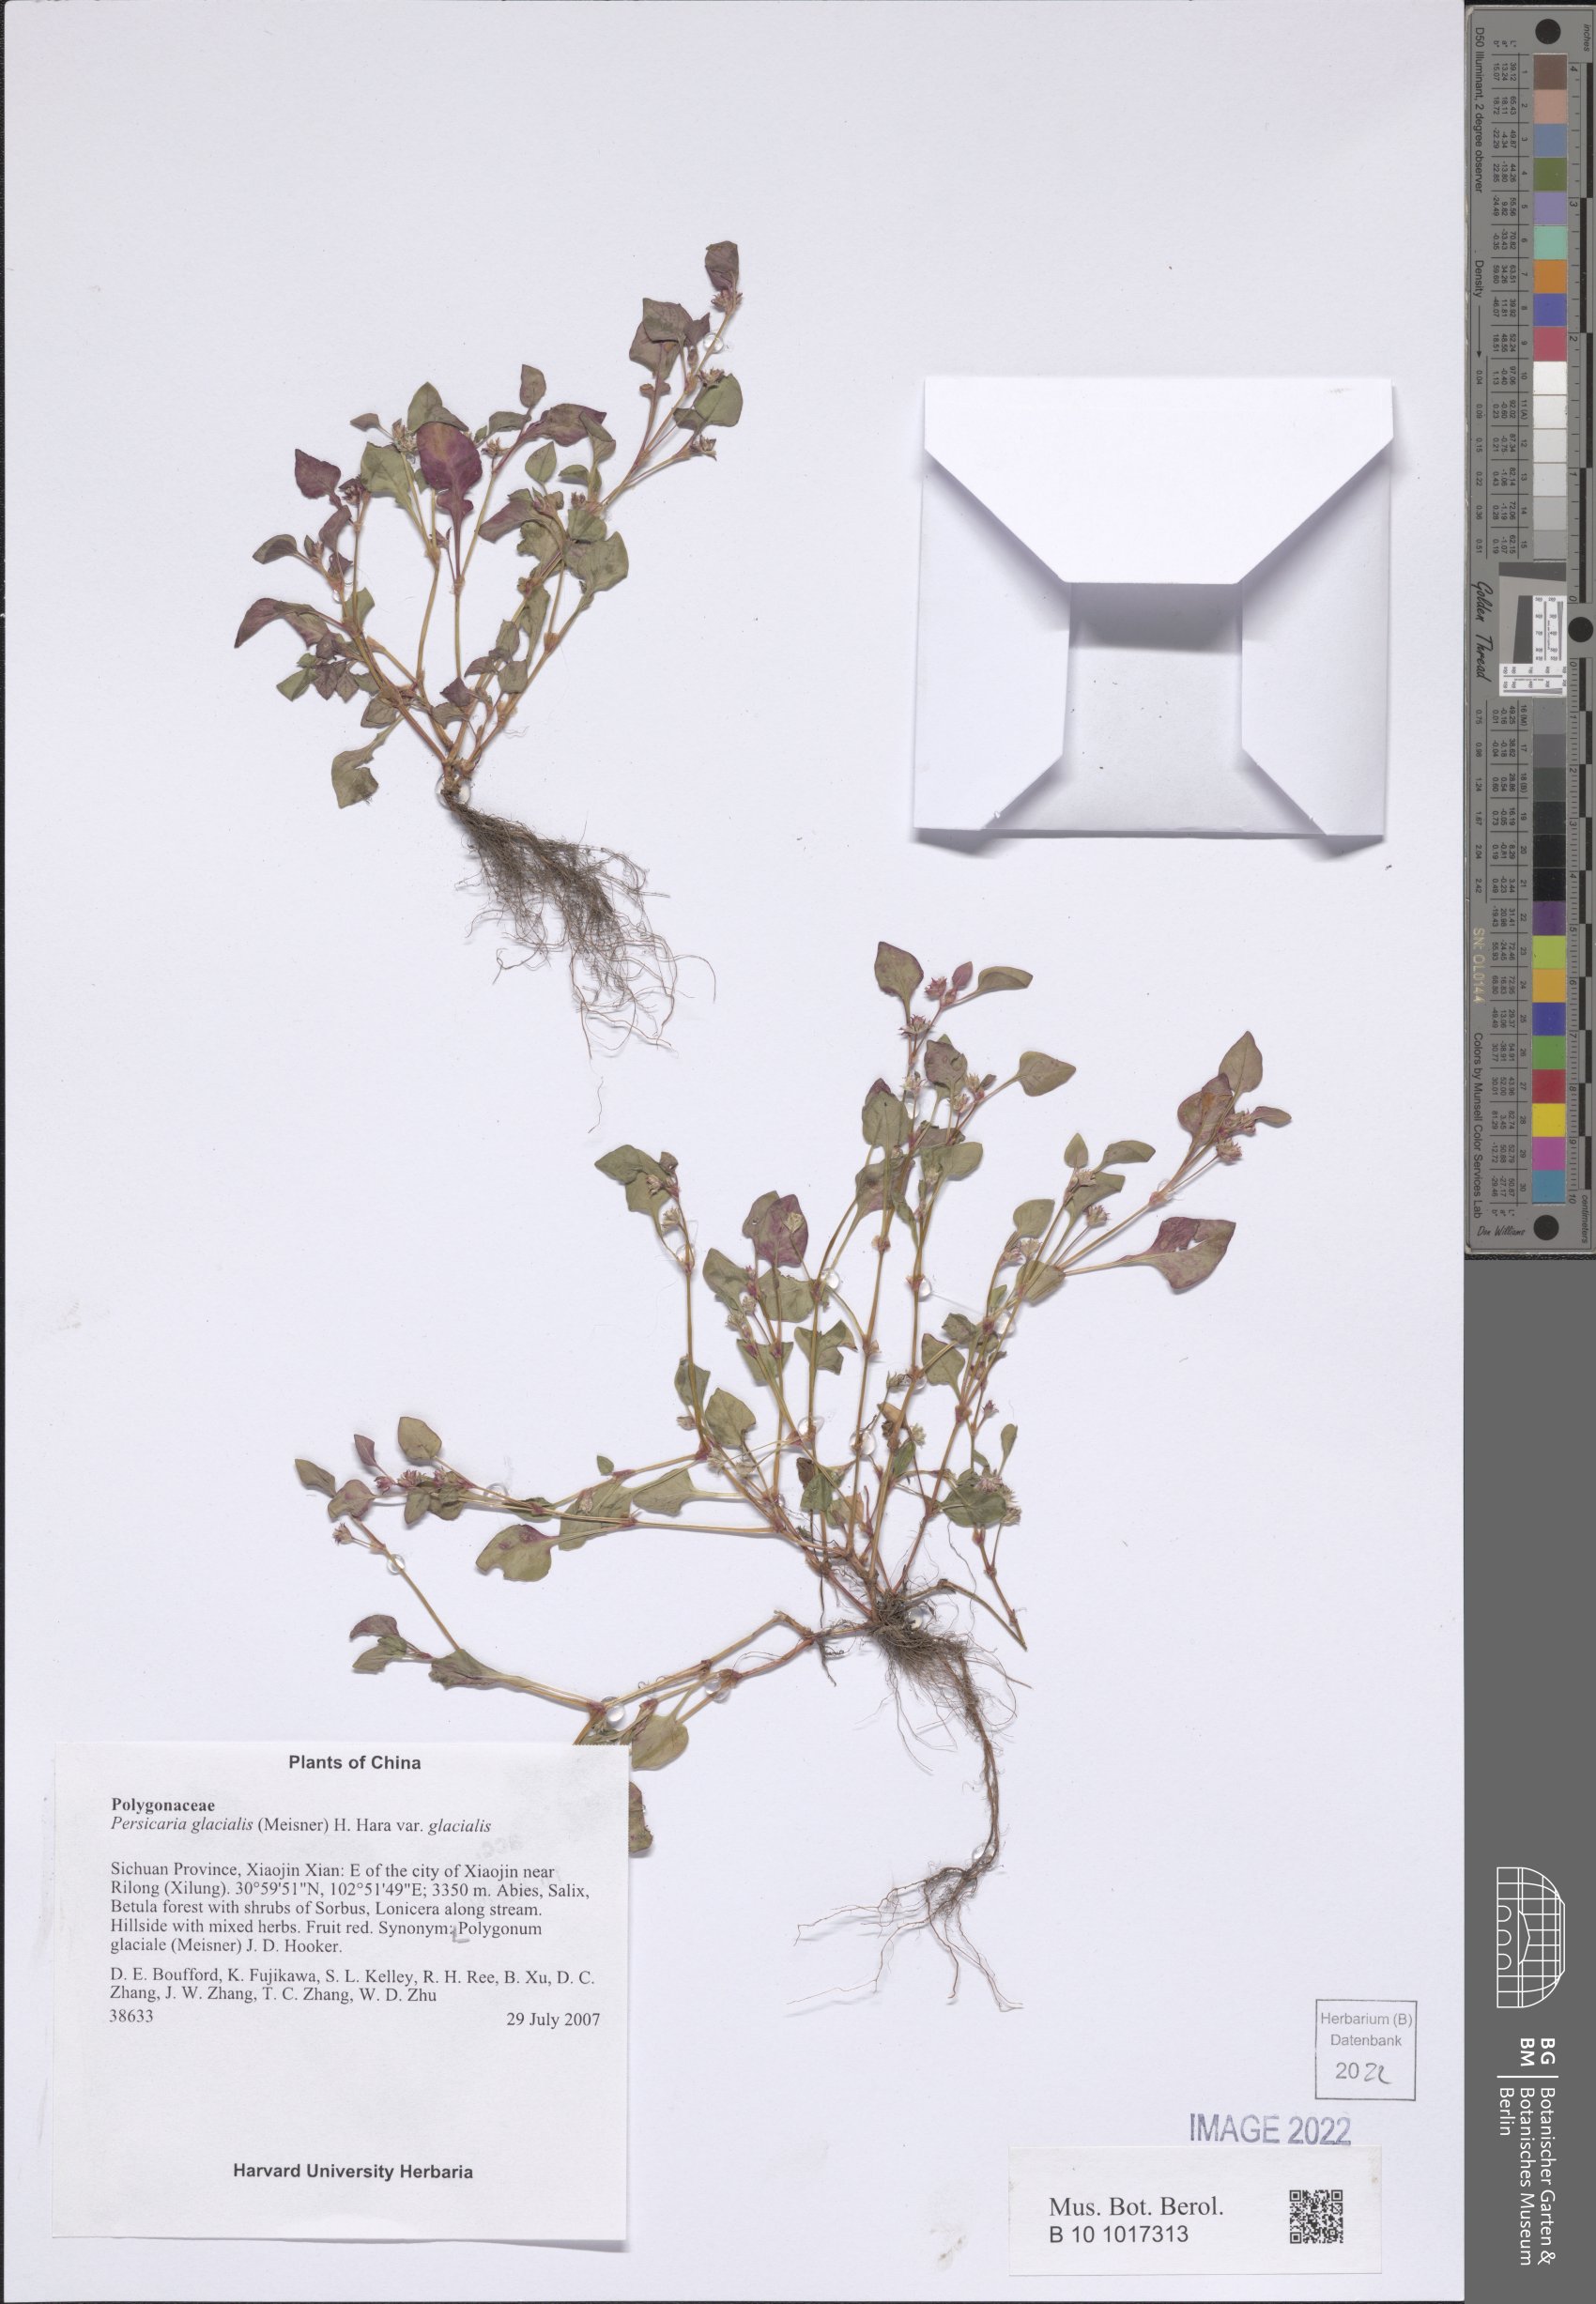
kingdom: Plantae
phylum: Tracheophyta
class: Magnoliopsida
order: Caryophyllales
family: Polygonaceae
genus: Persicaria
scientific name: Persicaria glacialis
